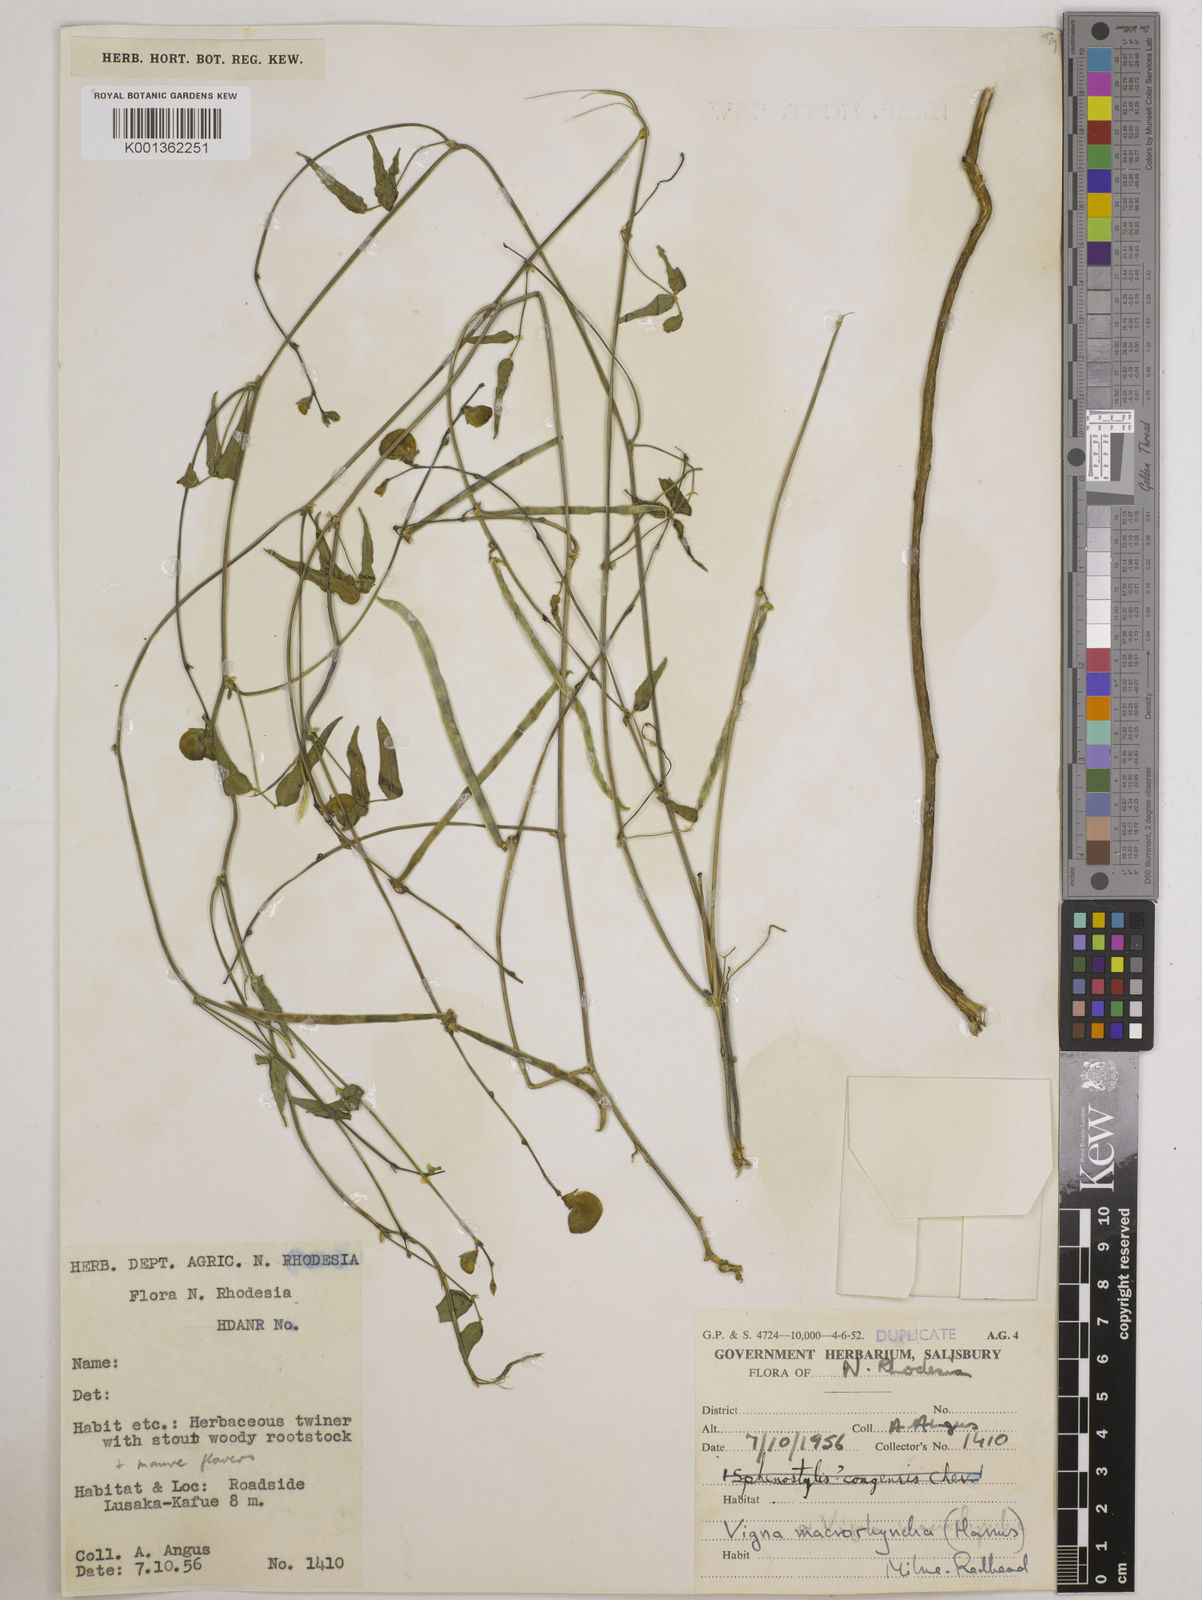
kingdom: Plantae
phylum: Tracheophyta
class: Magnoliopsida
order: Fabales
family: Fabaceae
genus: Wajira
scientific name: Wajira grahamiana
